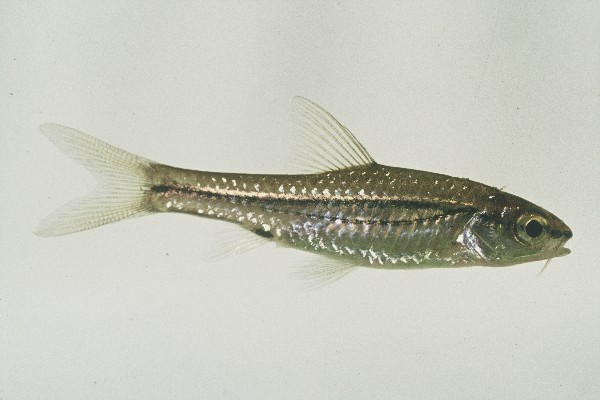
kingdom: Animalia
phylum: Chordata
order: Cypriniformes
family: Cyprinidae
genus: Enteromius
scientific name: Enteromius bifrenatus
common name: Hyphen barb
